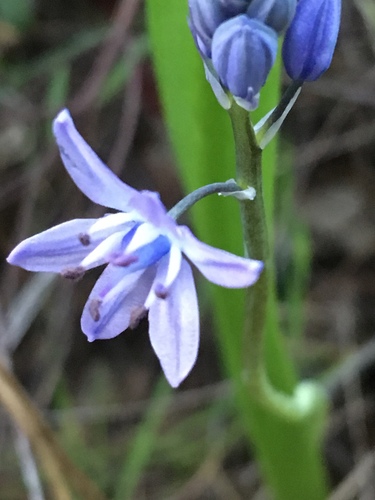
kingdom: Plantae
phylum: Tracheophyta
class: Liliopsida
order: Asparagales
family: Asparagaceae
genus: Scilla
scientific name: Scilla monophyllos
